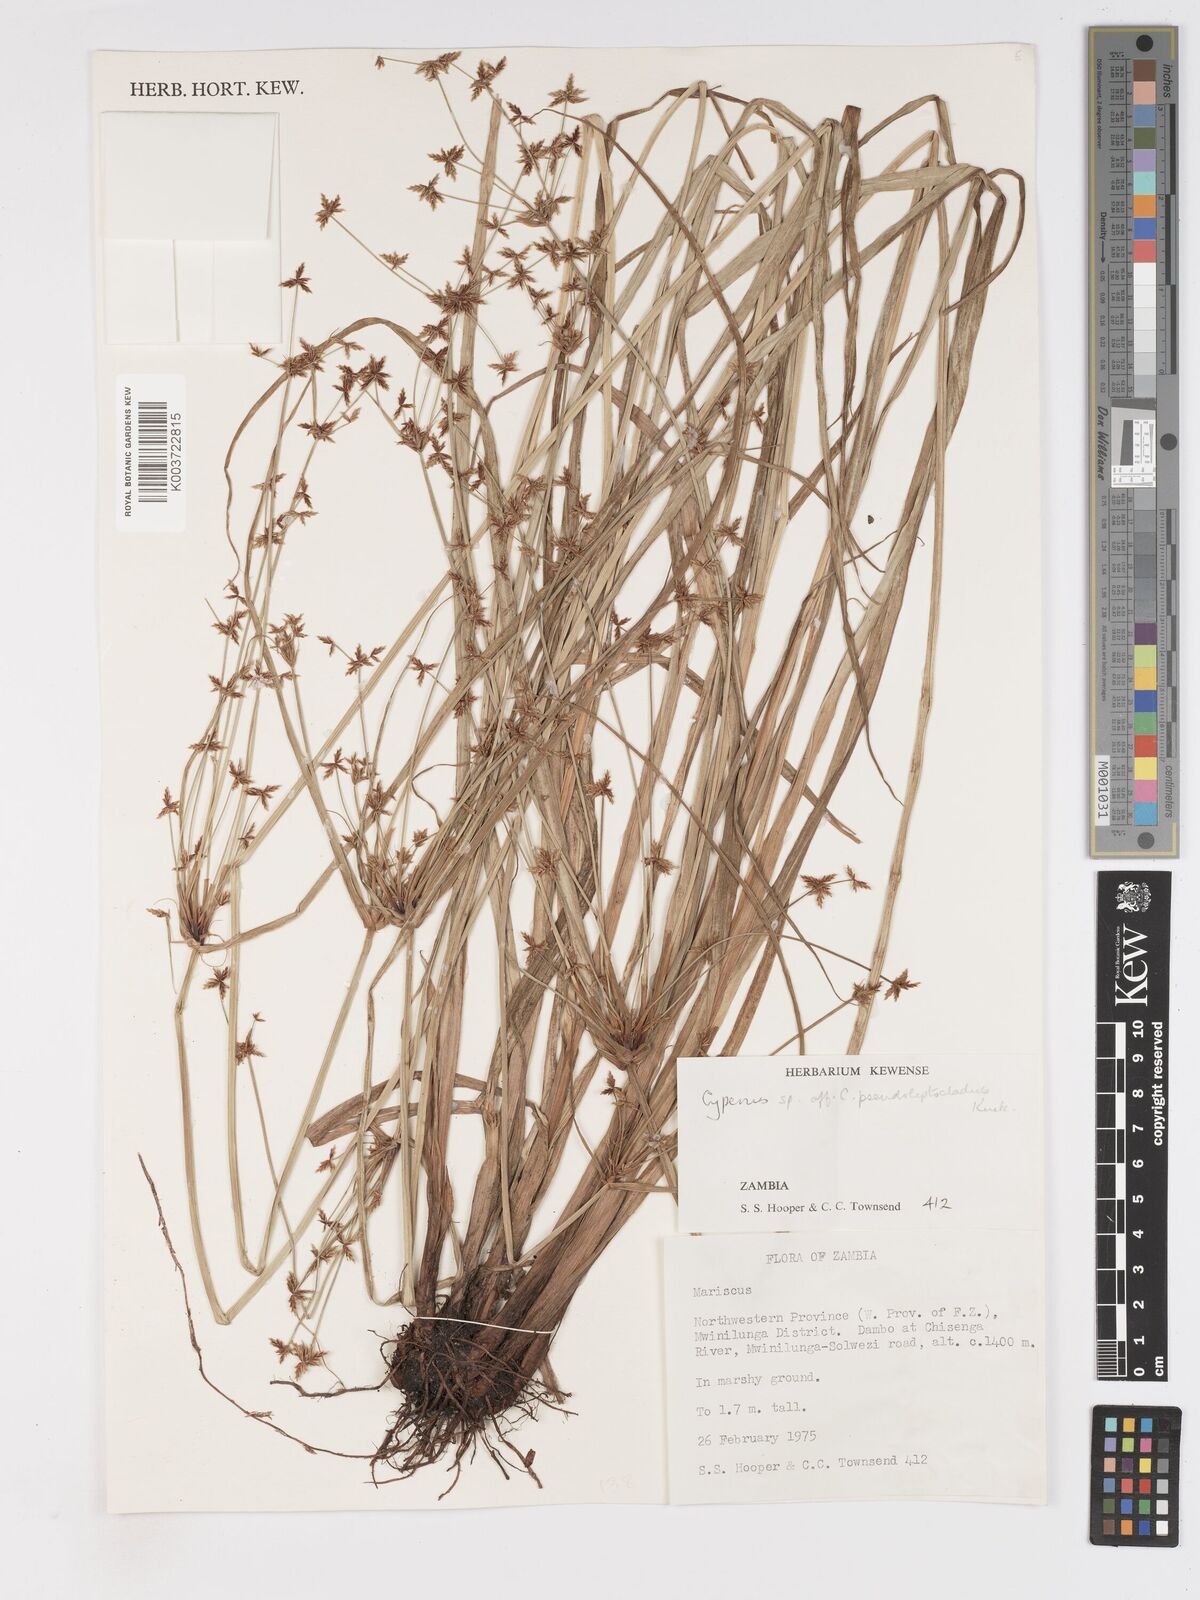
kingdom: Plantae
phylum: Tracheophyta
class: Liliopsida
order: Poales
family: Cyperaceae
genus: Cyperus
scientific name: Cyperus glaucophyllus
